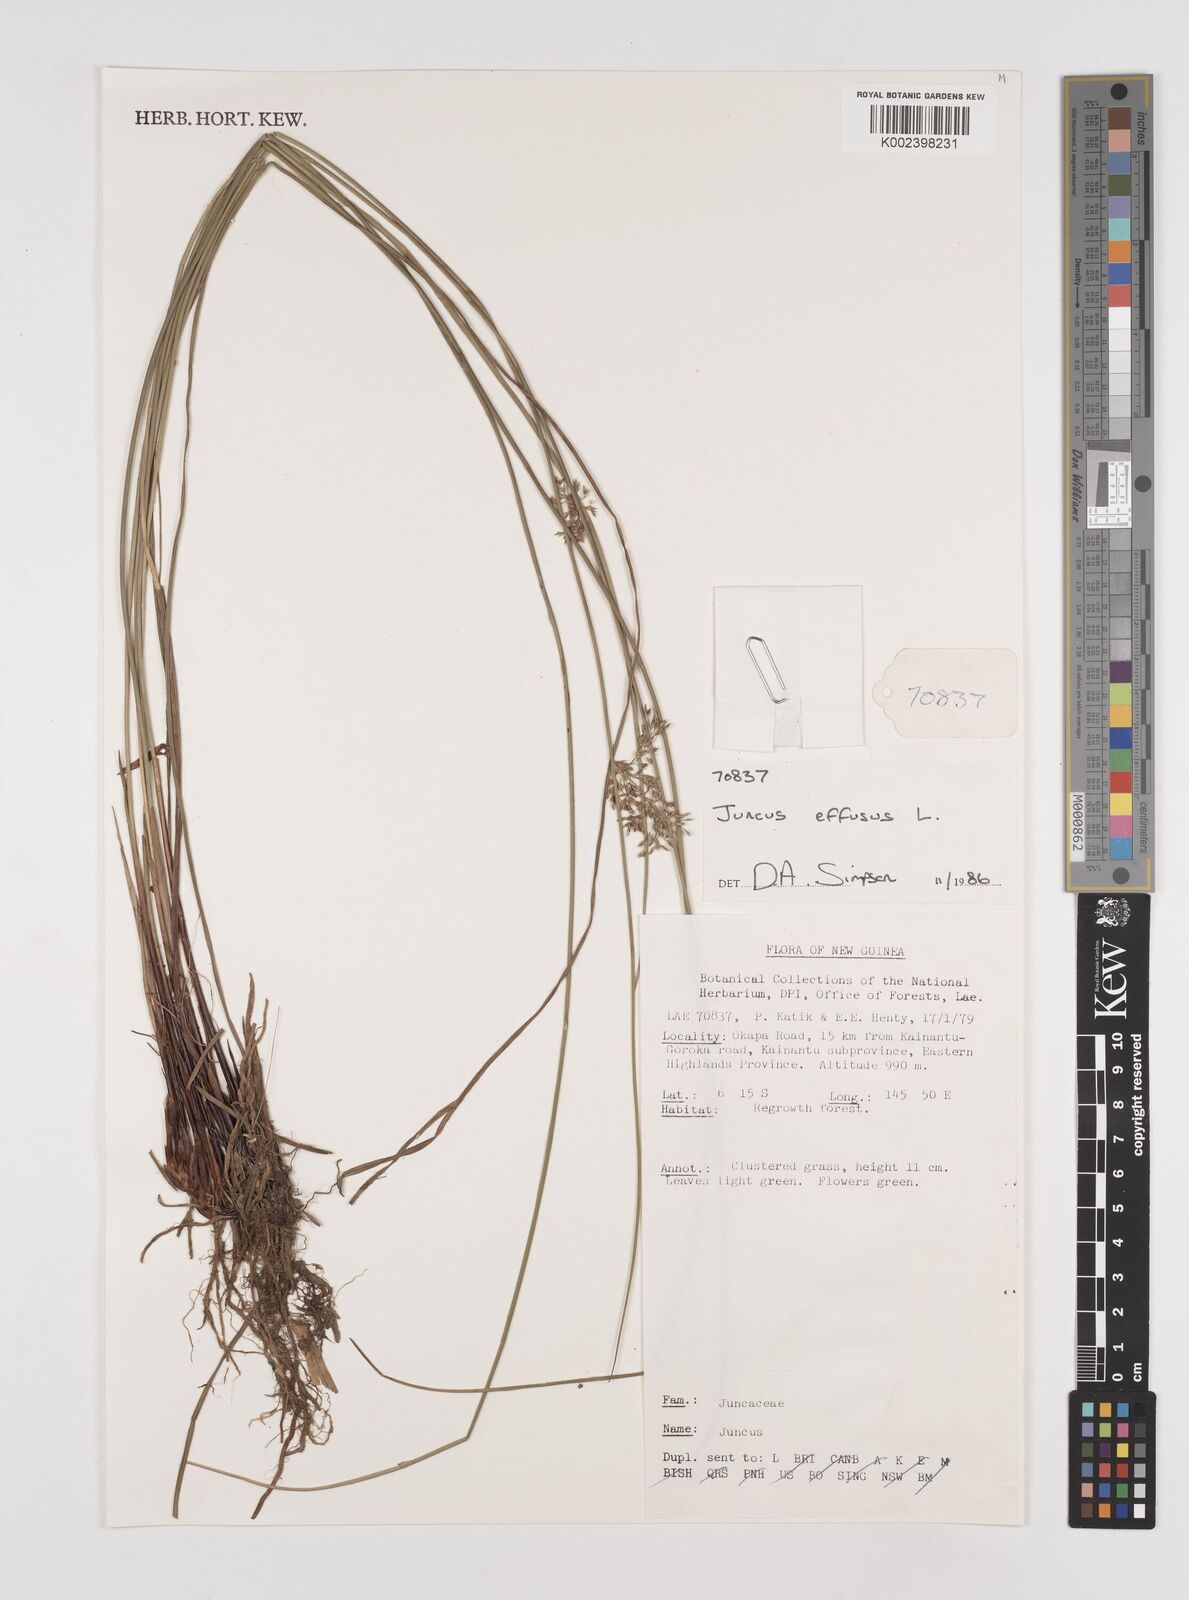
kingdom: Plantae
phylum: Tracheophyta
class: Liliopsida
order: Poales
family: Juncaceae
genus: Juncus
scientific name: Juncus decipiens
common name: Lamp rush
